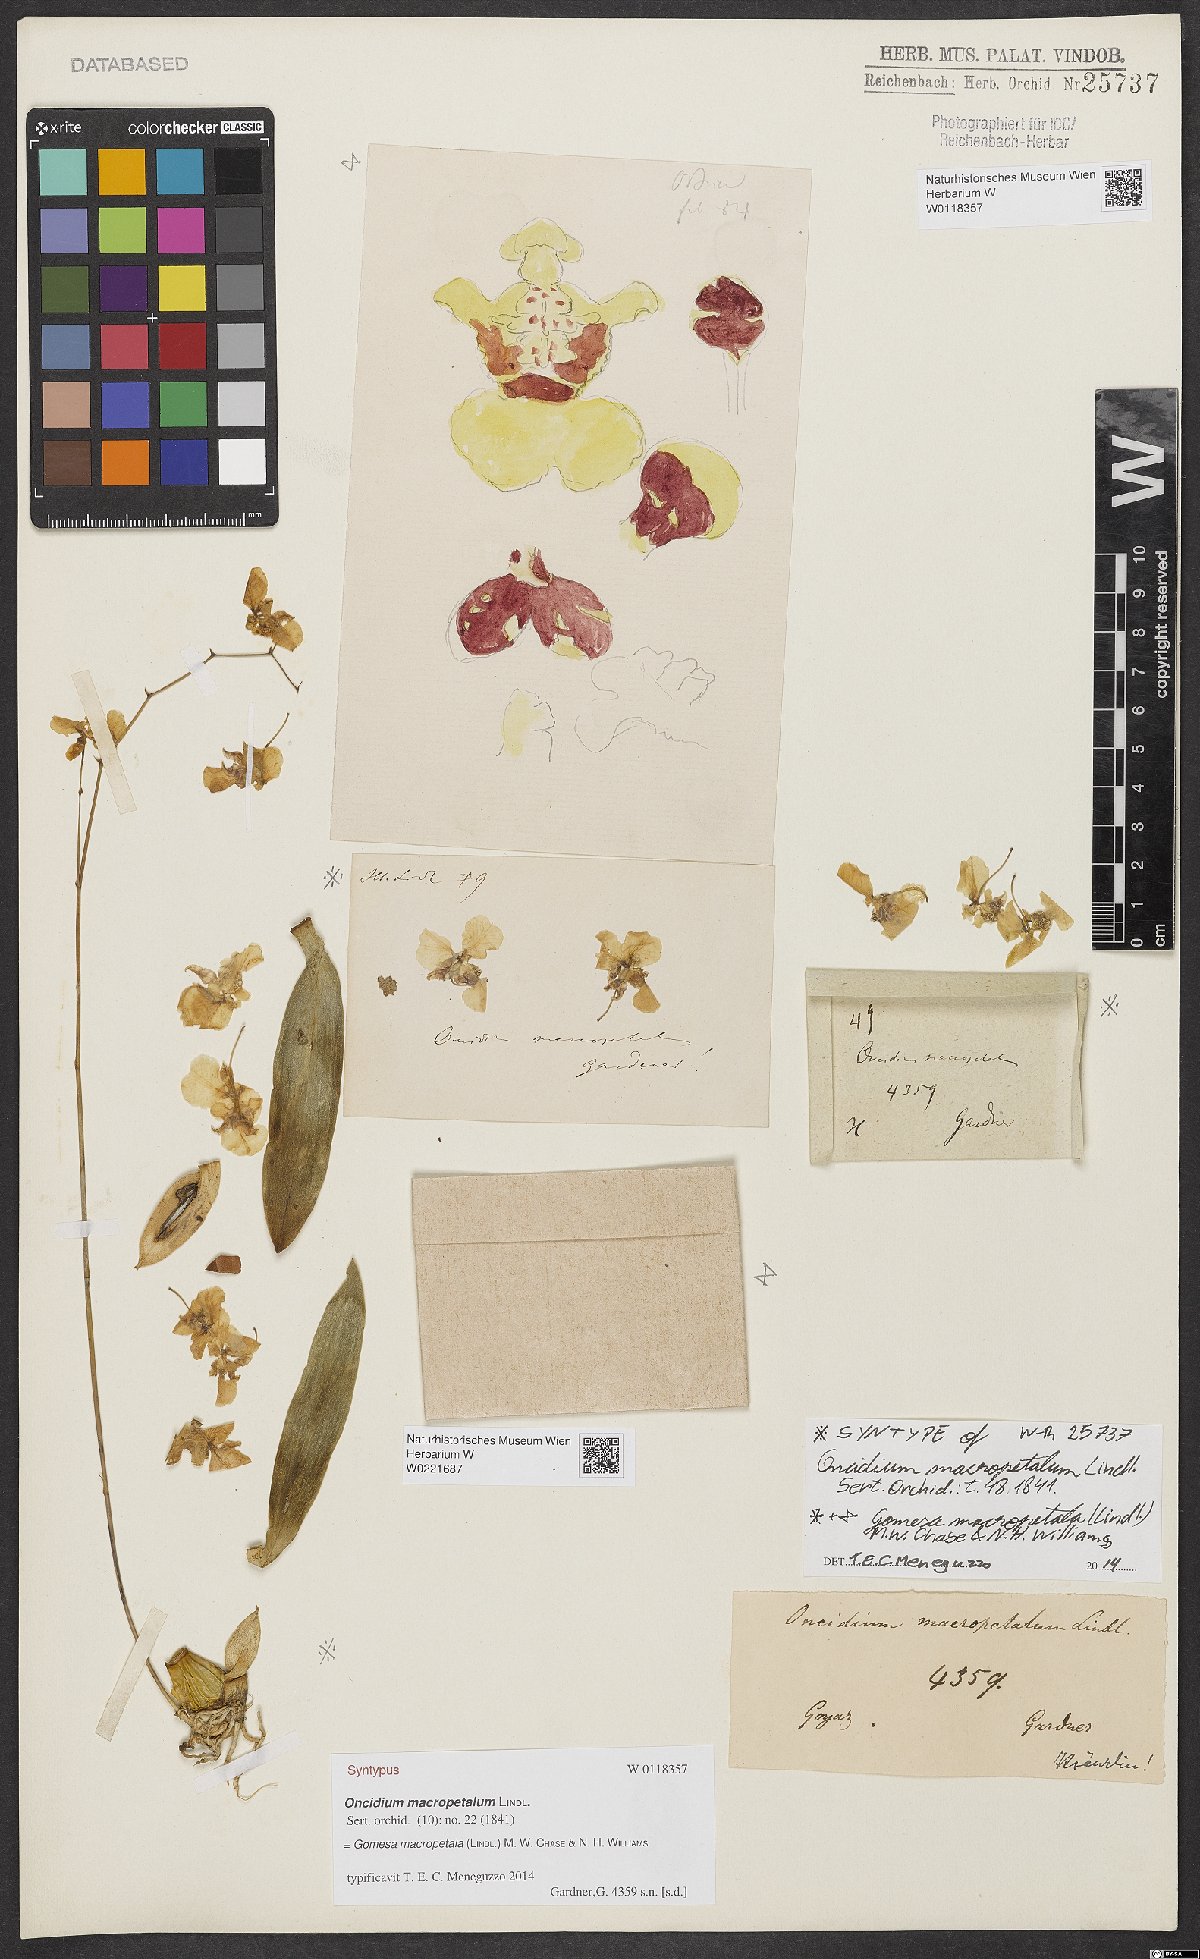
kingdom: Plantae
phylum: Tracheophyta
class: Liliopsida
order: Asparagales
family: Orchidaceae
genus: Gomesa
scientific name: Gomesa macropetala
